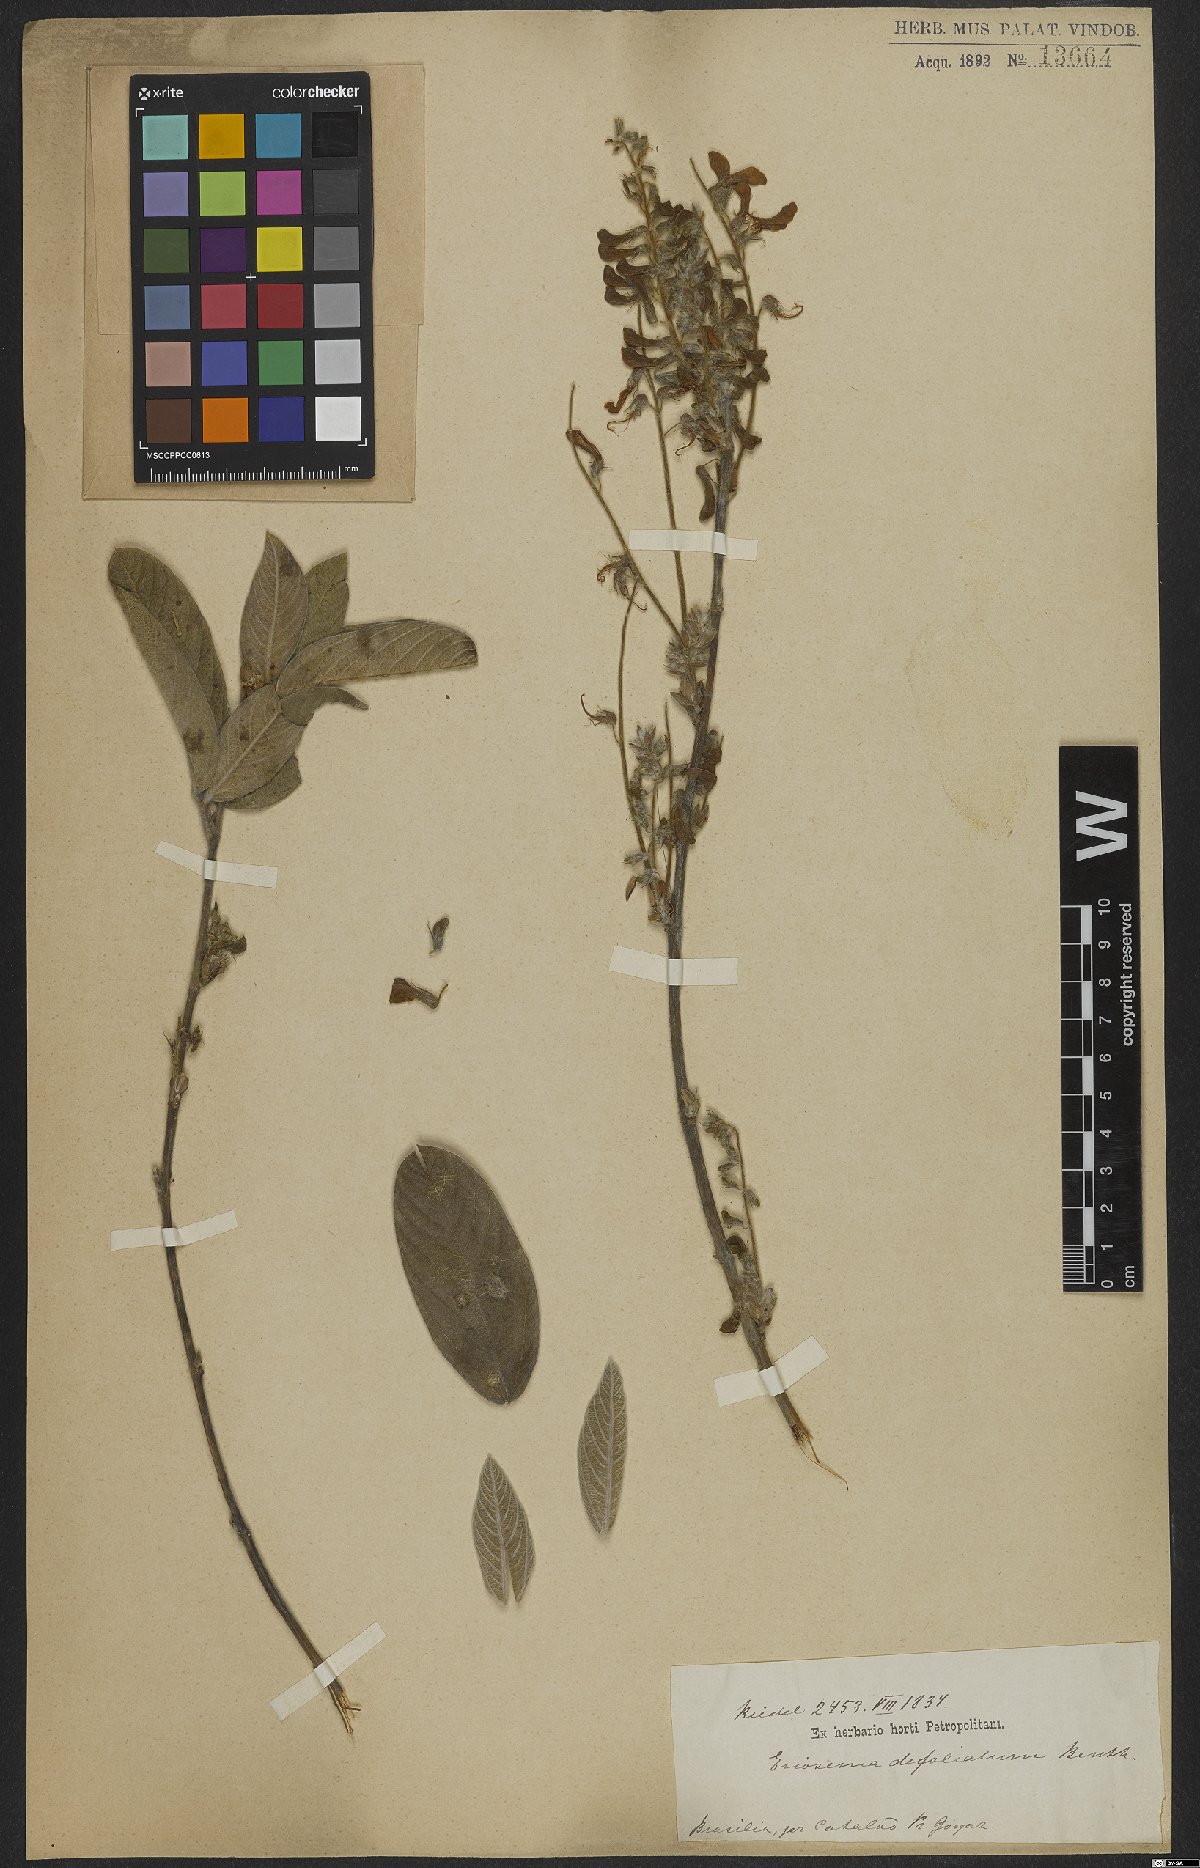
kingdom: Plantae
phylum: Tracheophyta
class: Magnoliopsida
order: Fabales
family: Fabaceae
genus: Eriosema
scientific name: Eriosema defoliatum
